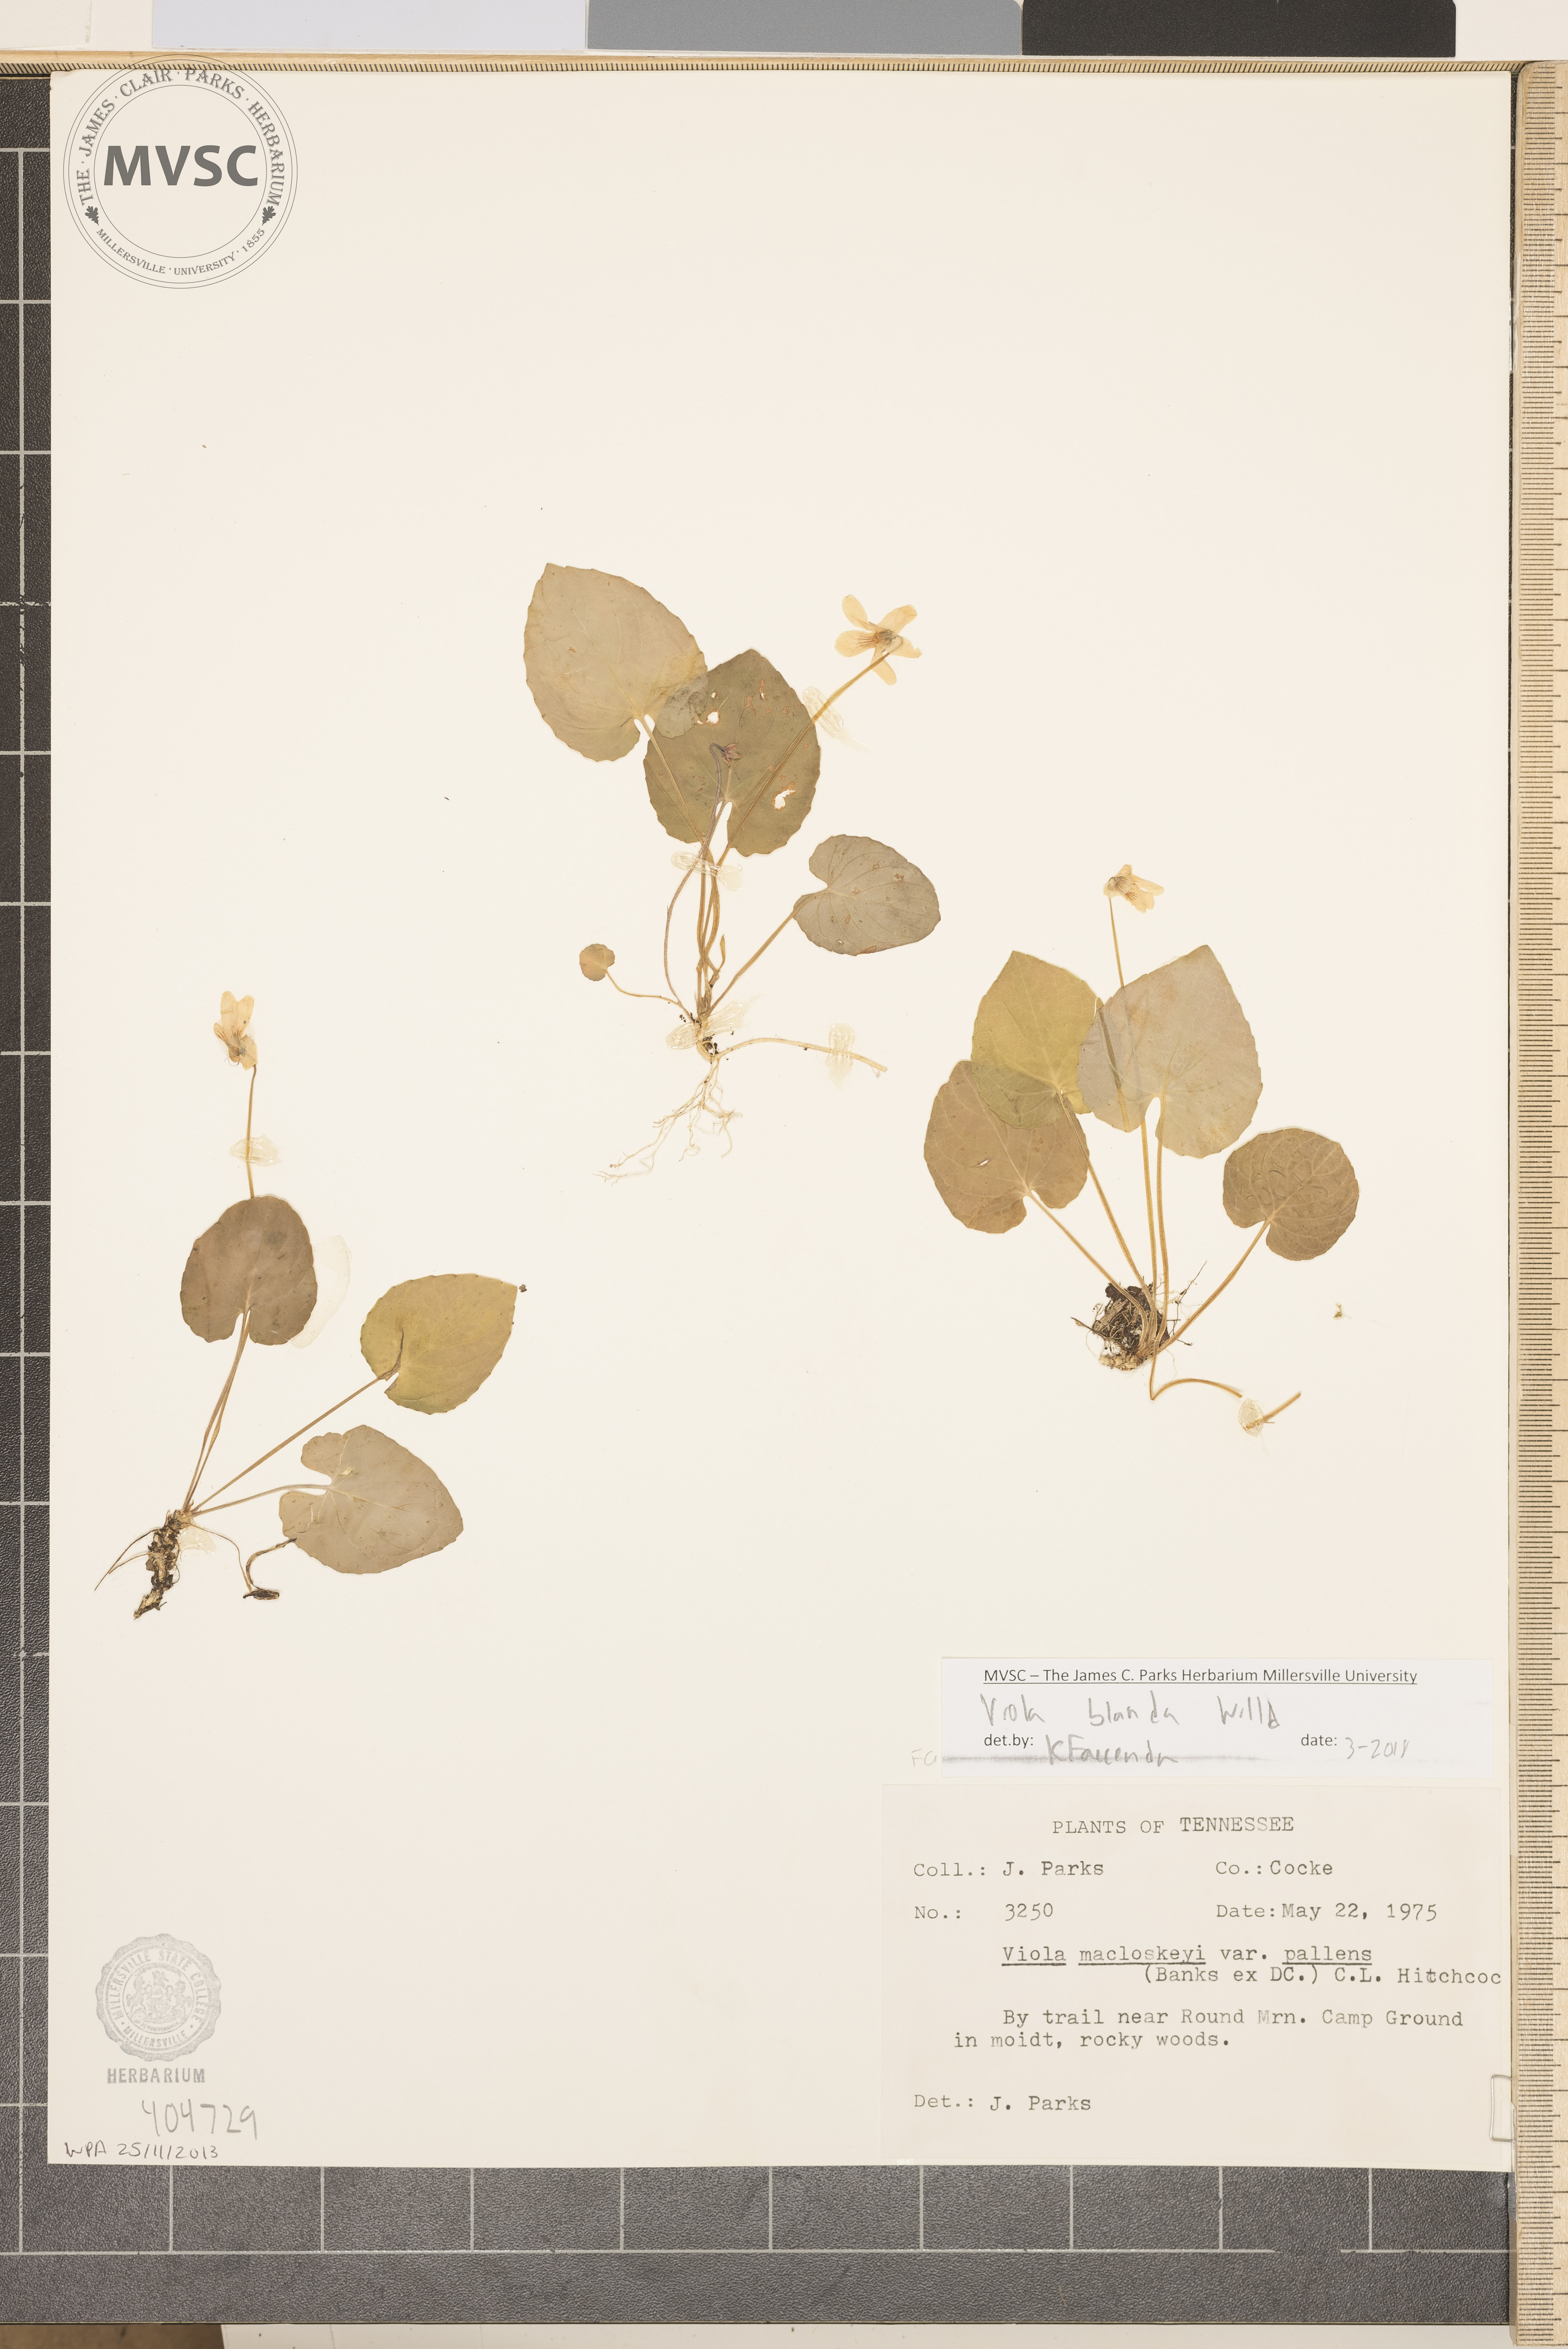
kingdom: Plantae
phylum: Tracheophyta
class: Magnoliopsida
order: Malpighiales
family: Violaceae
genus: Viola
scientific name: Viola blanda
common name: Sweet white violet
